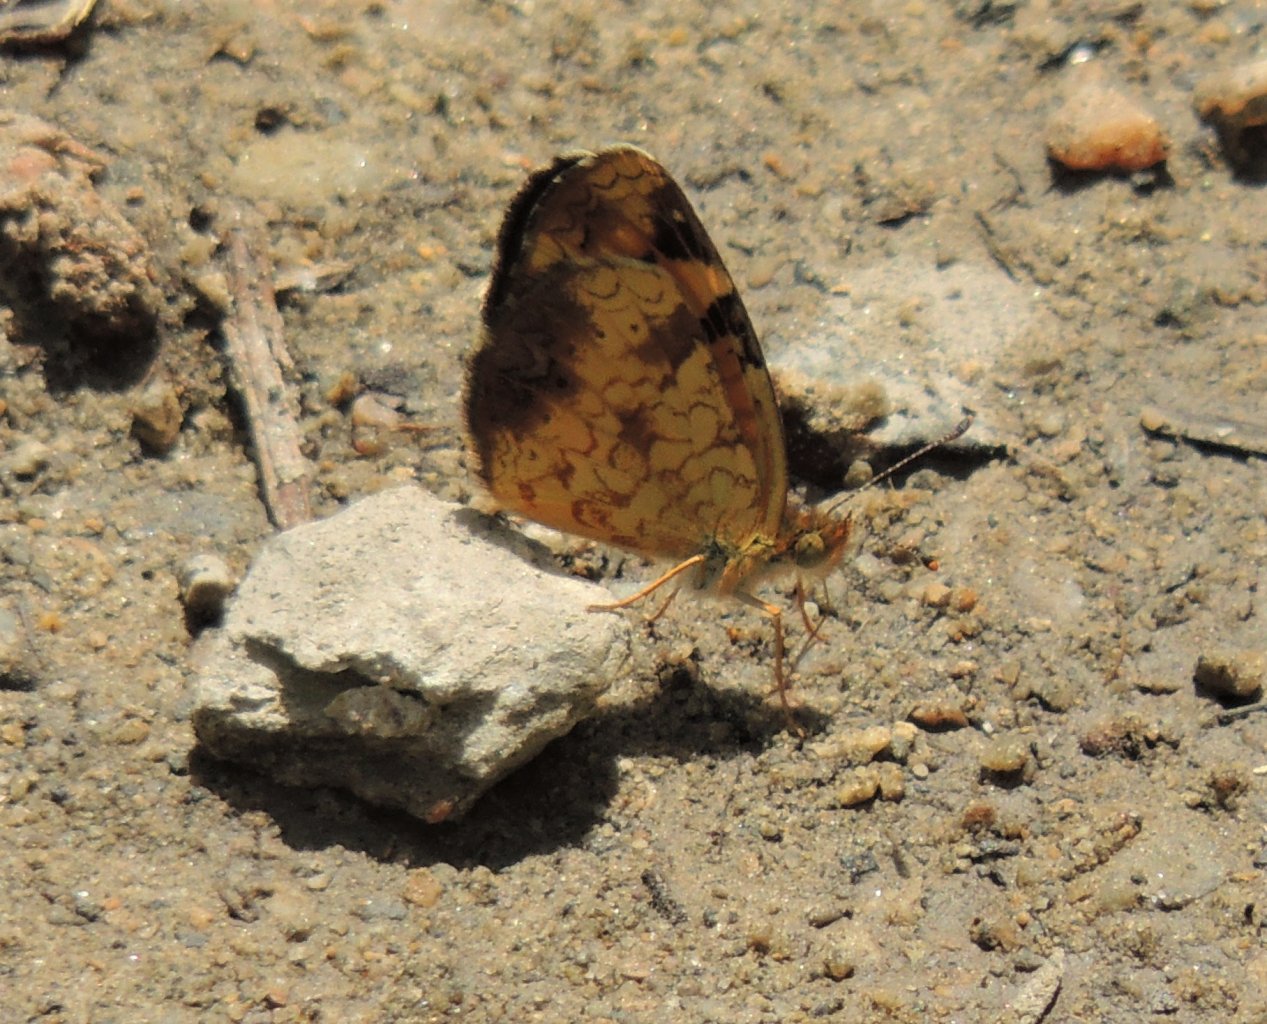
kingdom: Animalia
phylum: Arthropoda
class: Insecta
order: Lepidoptera
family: Nymphalidae
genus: Phyciodes
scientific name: Phyciodes tharos
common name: Northern Crescent
